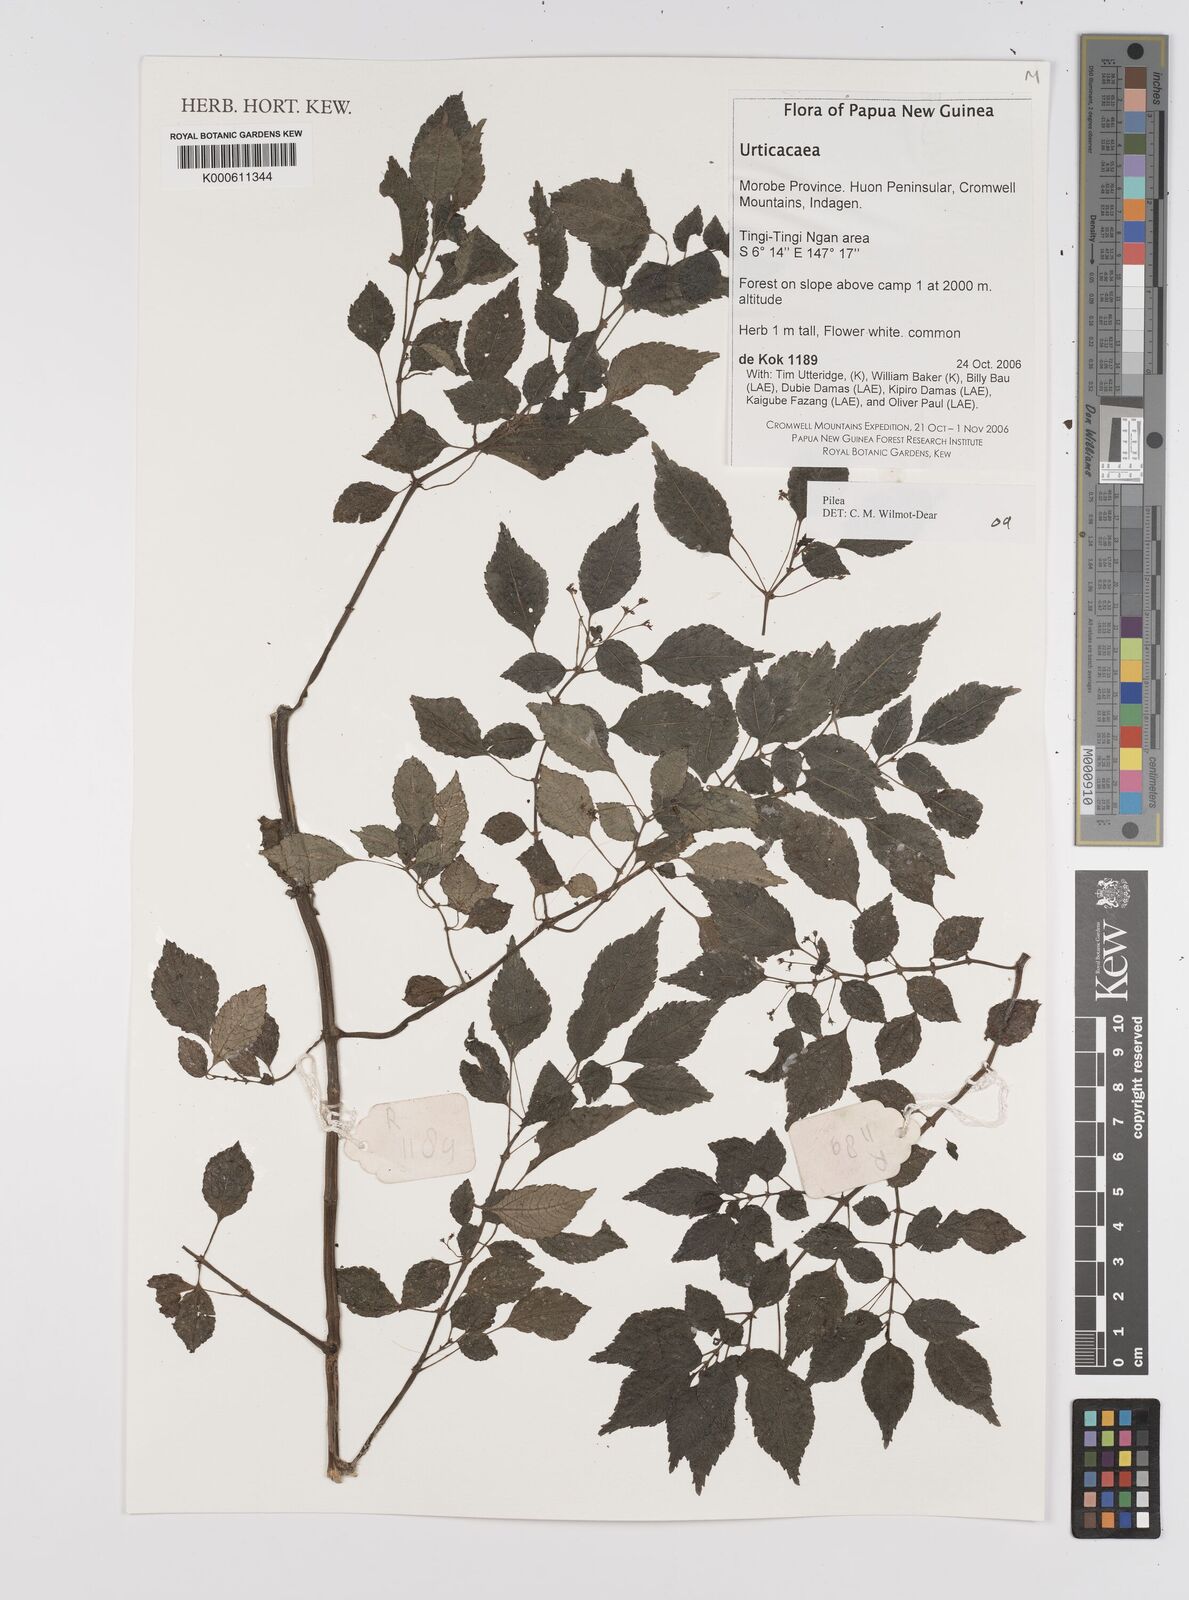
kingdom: Plantae
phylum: Tracheophyta
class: Magnoliopsida
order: Rosales
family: Urticaceae
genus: Pilea
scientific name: Pilea
